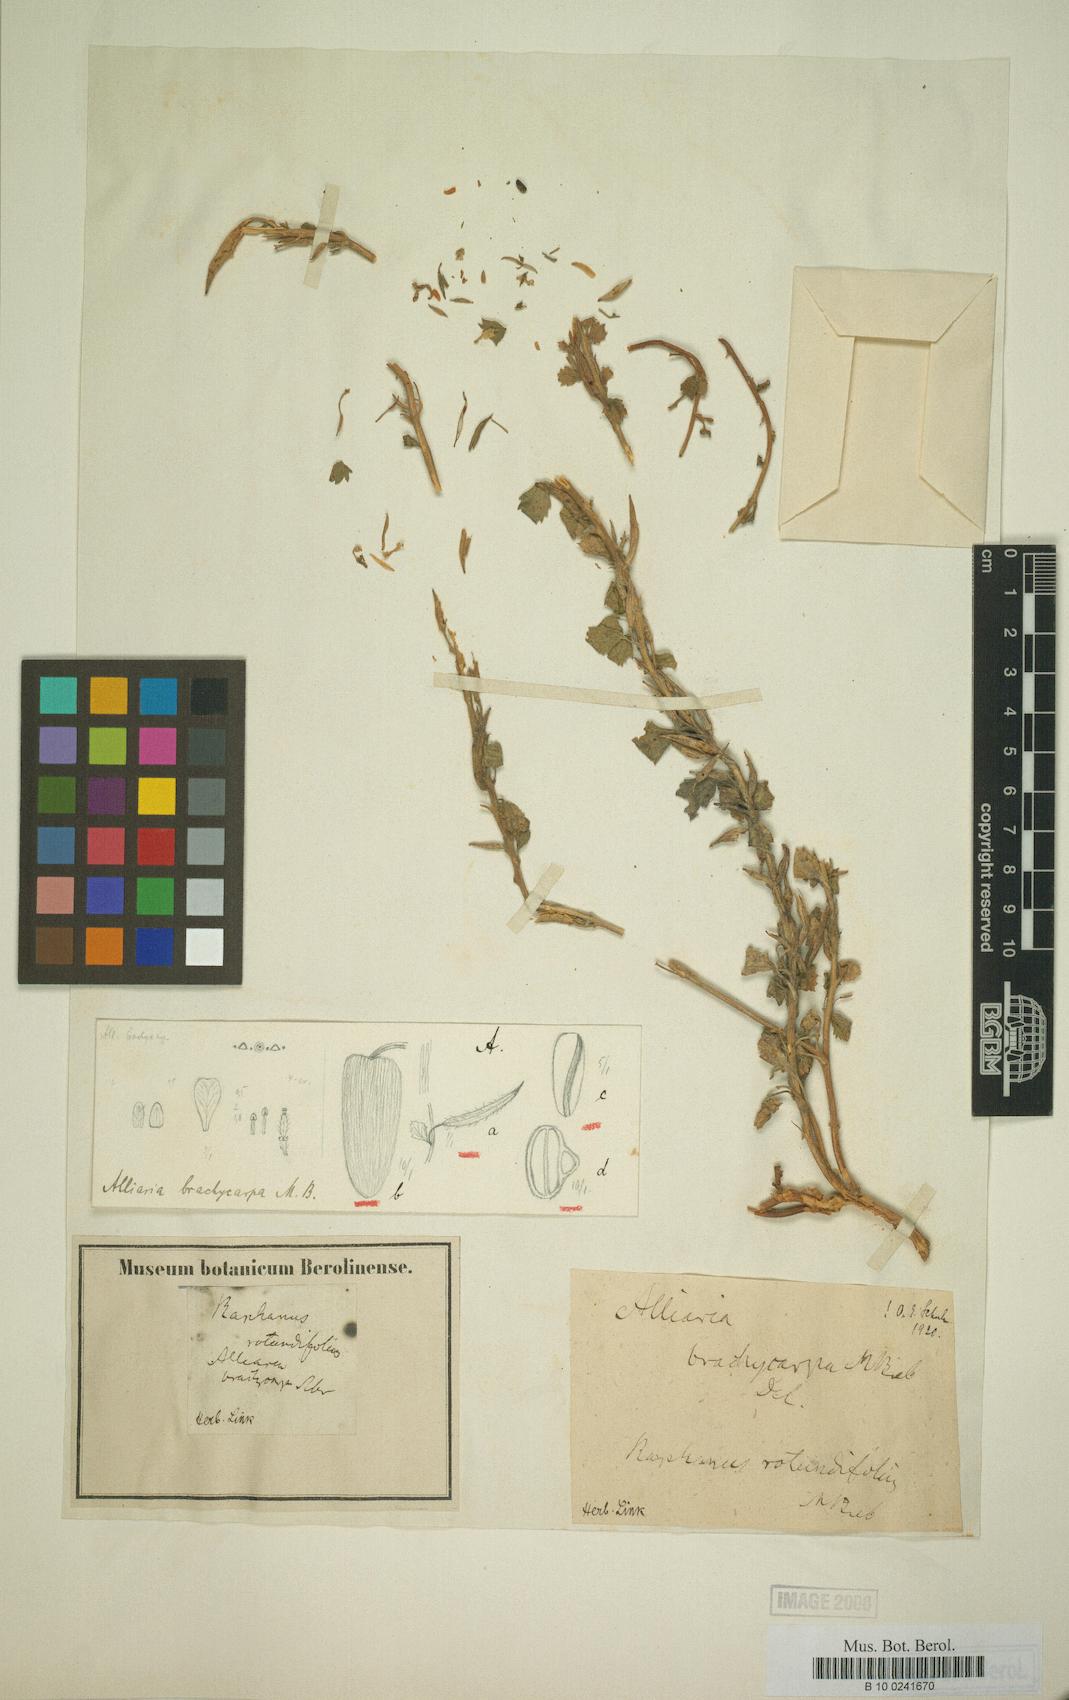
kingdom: Plantae
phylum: Tracheophyta
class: Magnoliopsida
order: Brassicales
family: Brassicaceae
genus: Parlatoria
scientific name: Parlatoria taurica
